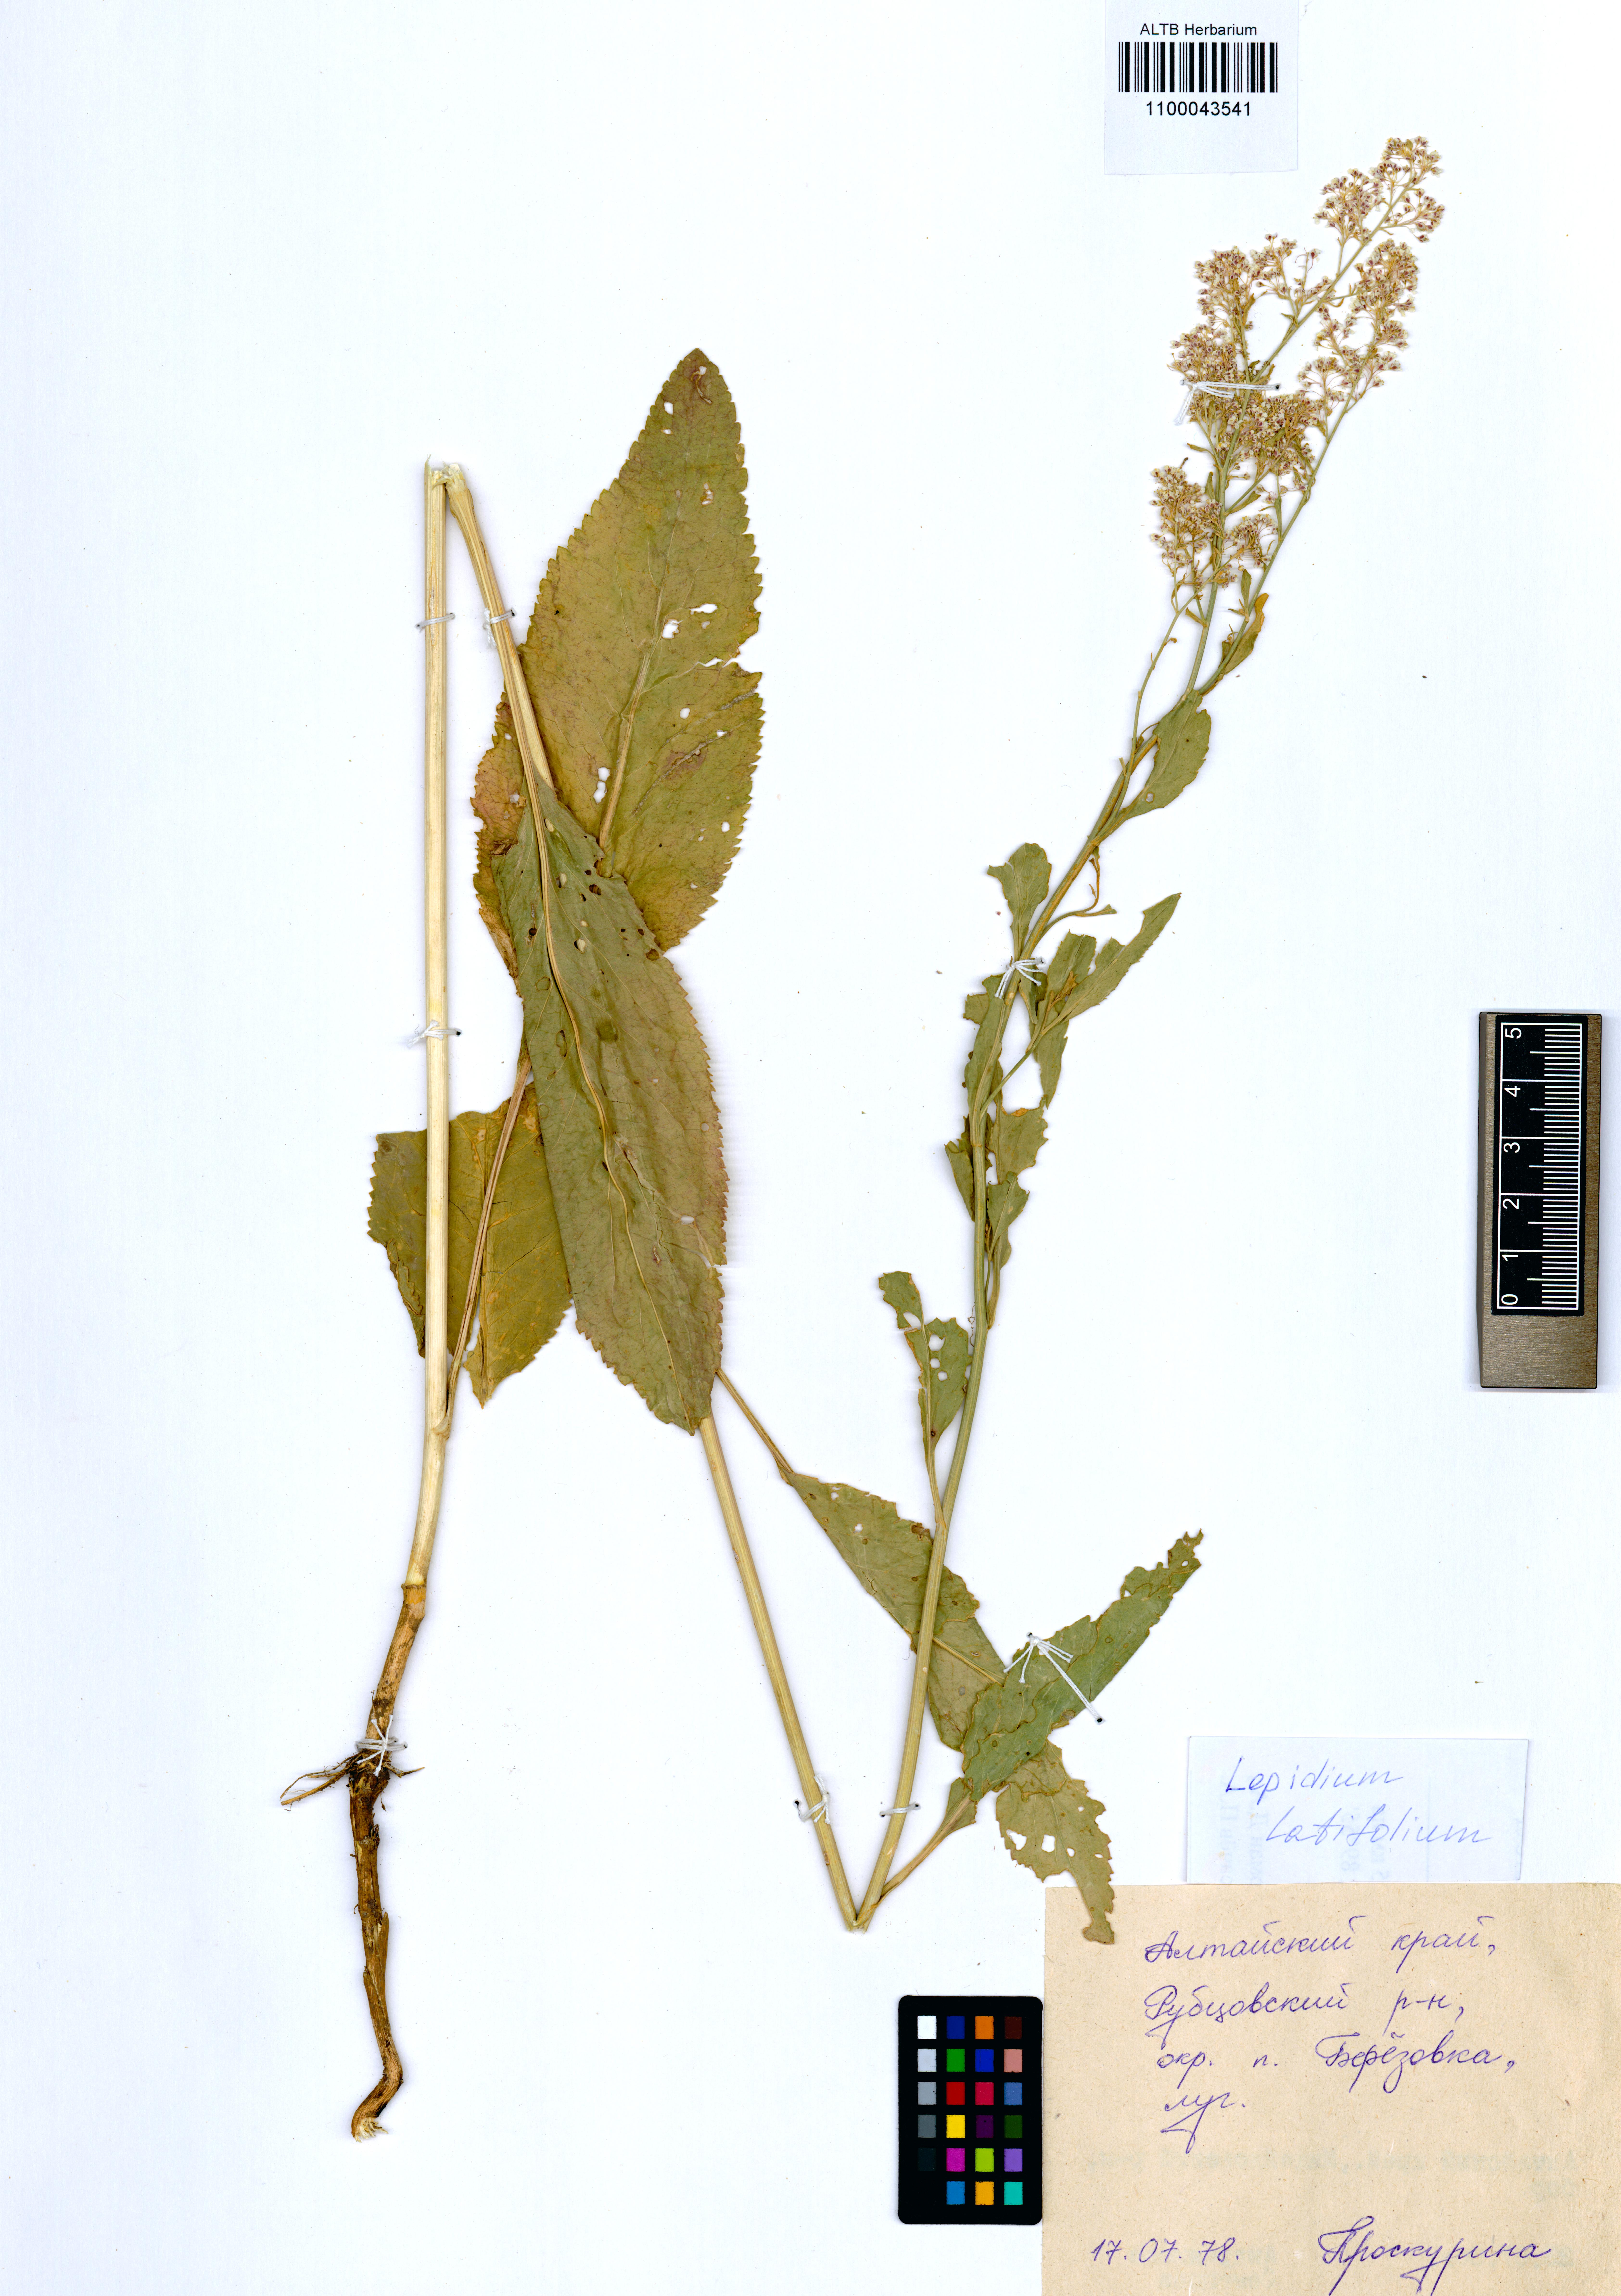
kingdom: Plantae
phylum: Tracheophyta
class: Magnoliopsida
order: Brassicales
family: Brassicaceae
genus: Lepidium
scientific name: Lepidium latifolium
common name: Dittander
